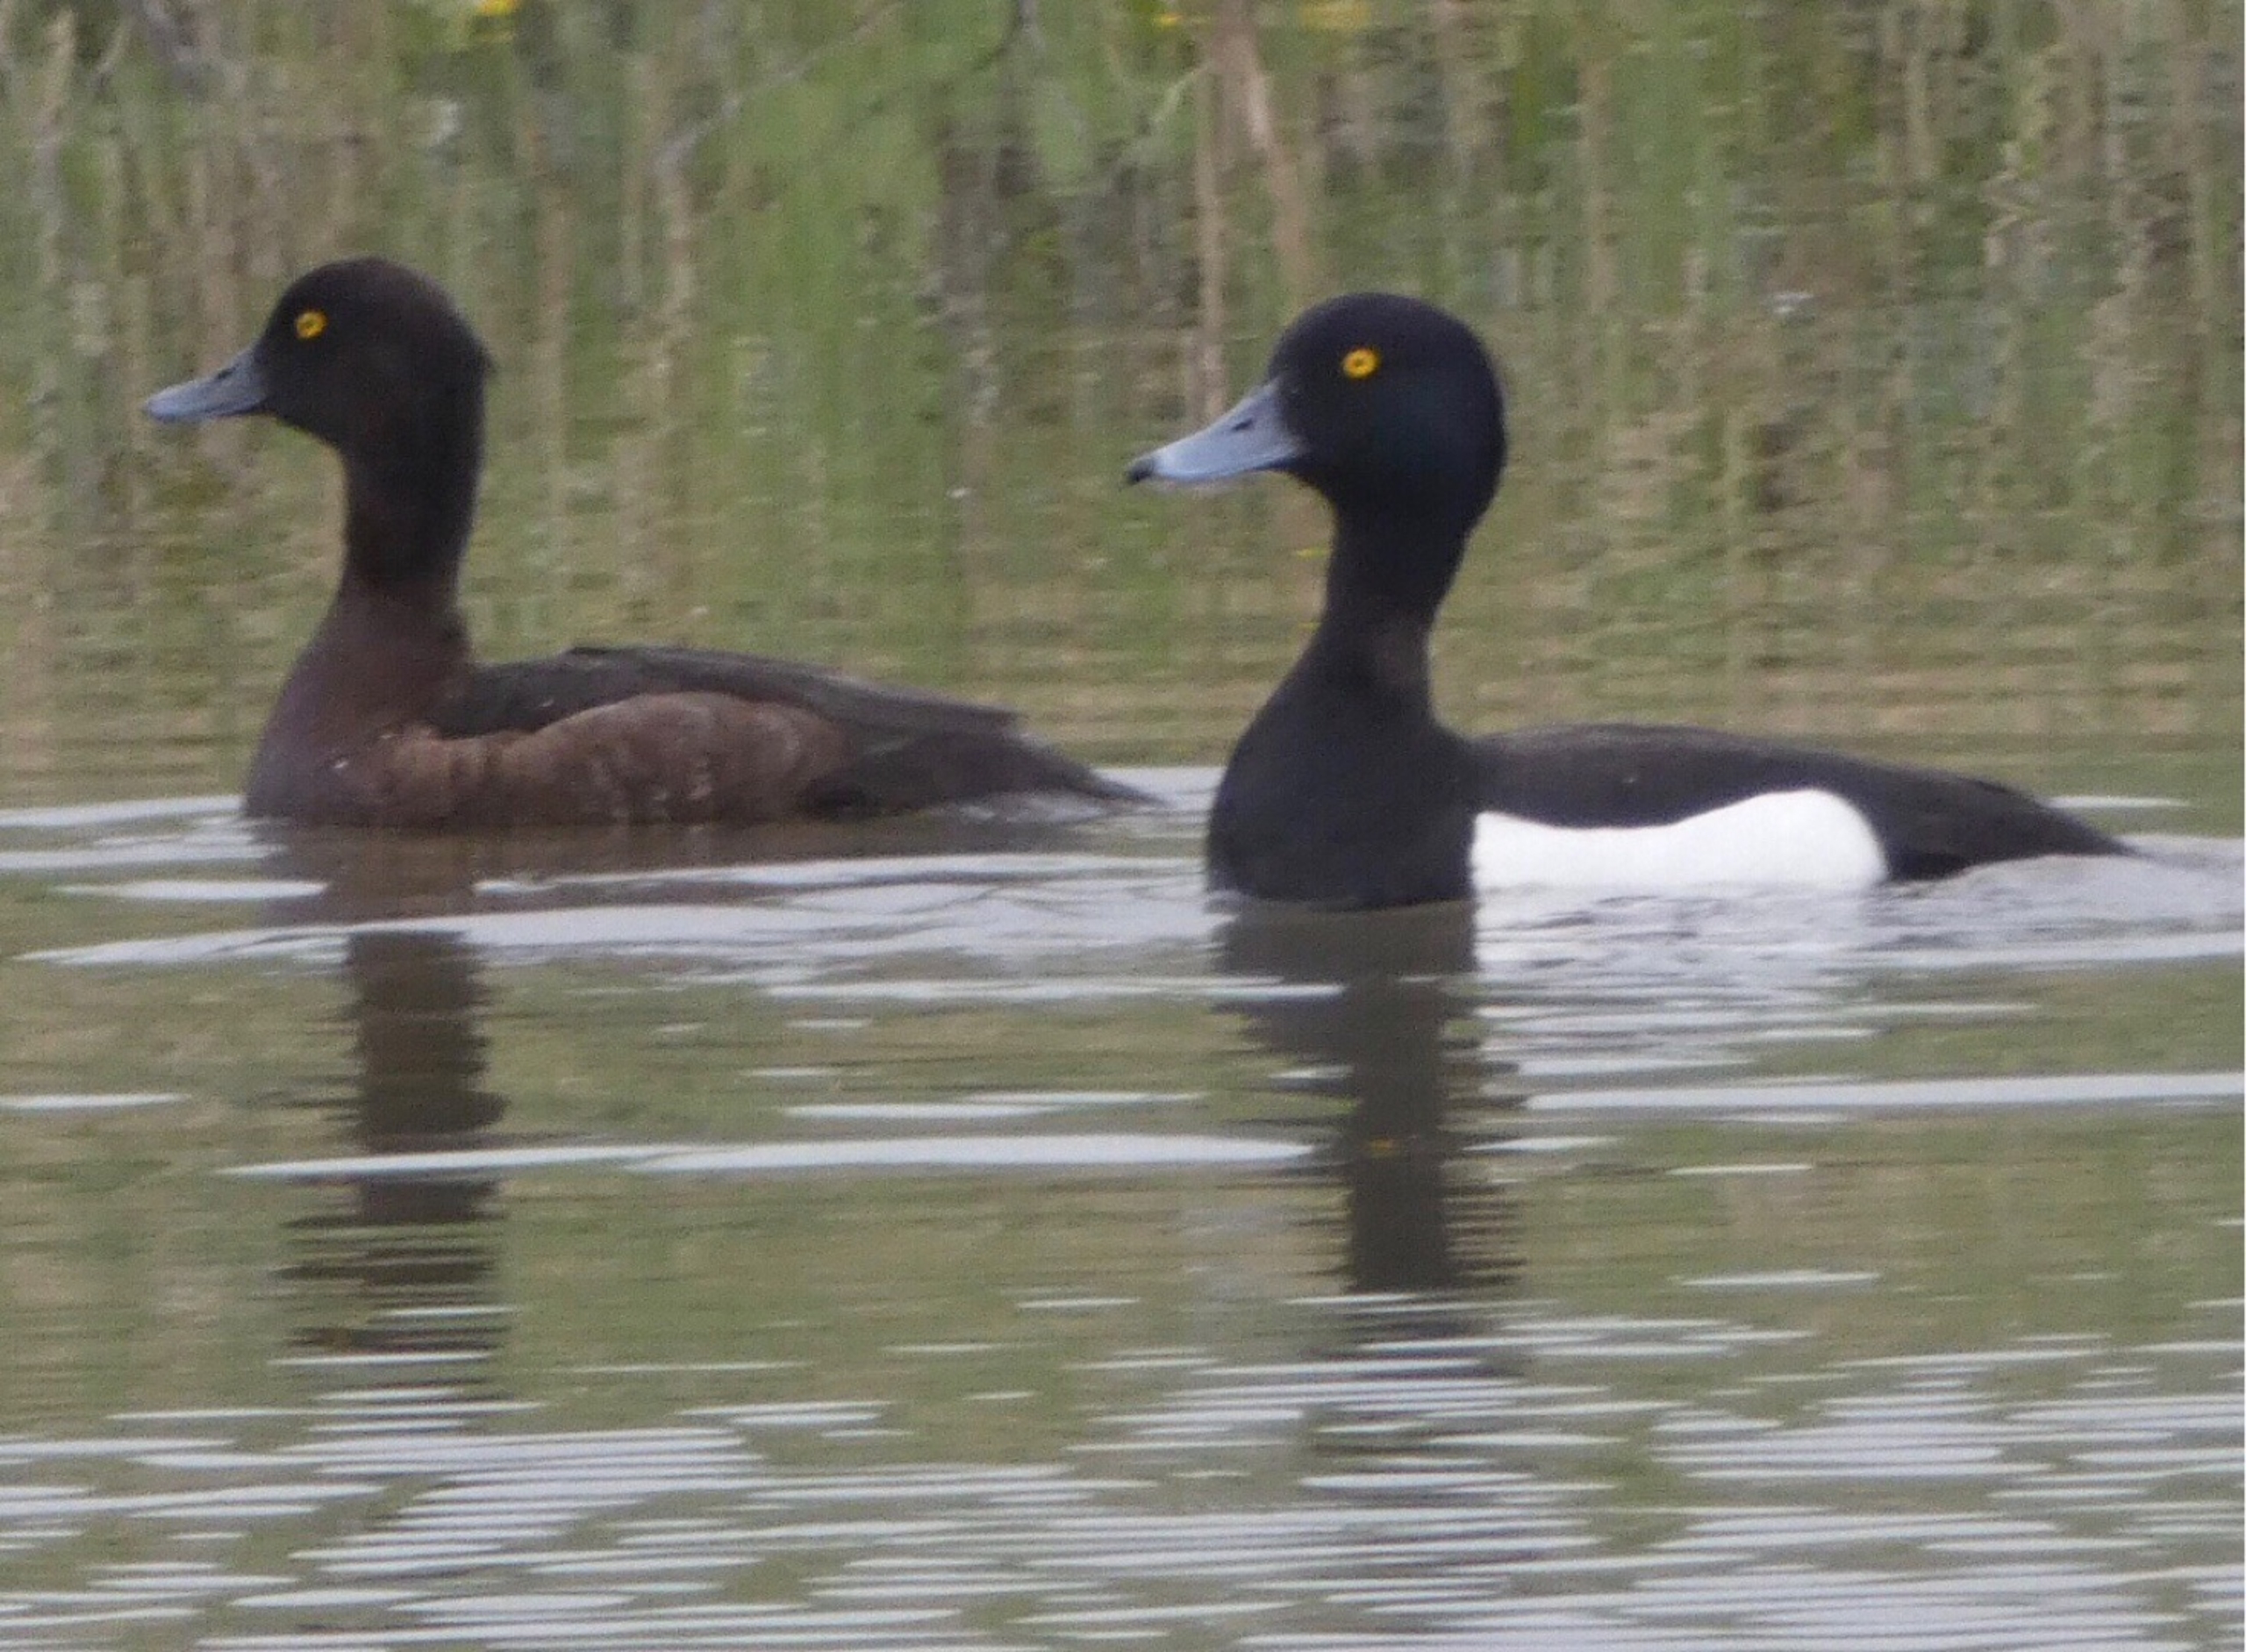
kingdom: Animalia
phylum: Chordata
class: Aves
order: Anseriformes
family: Anatidae
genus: Aythya
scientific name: Aythya fuligula
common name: Troldand
